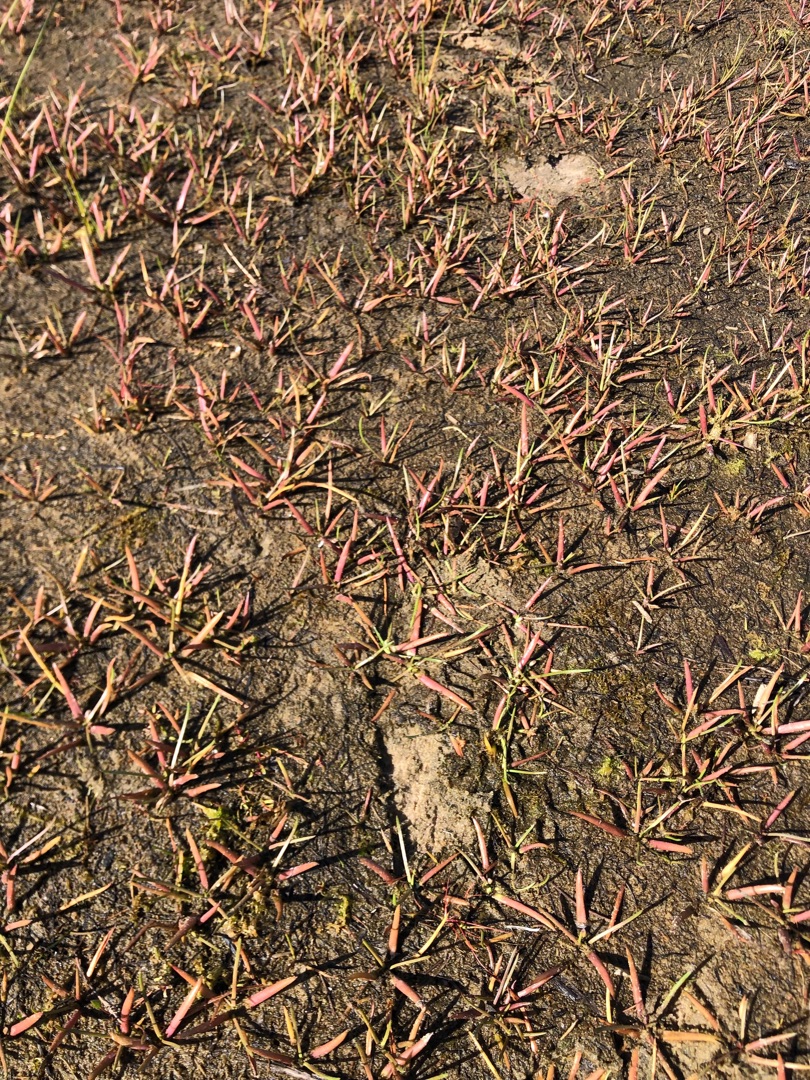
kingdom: Plantae
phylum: Tracheophyta
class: Magnoliopsida
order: Lamiales
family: Plantaginaceae
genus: Littorella
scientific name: Littorella uniflora
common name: Strandbo
